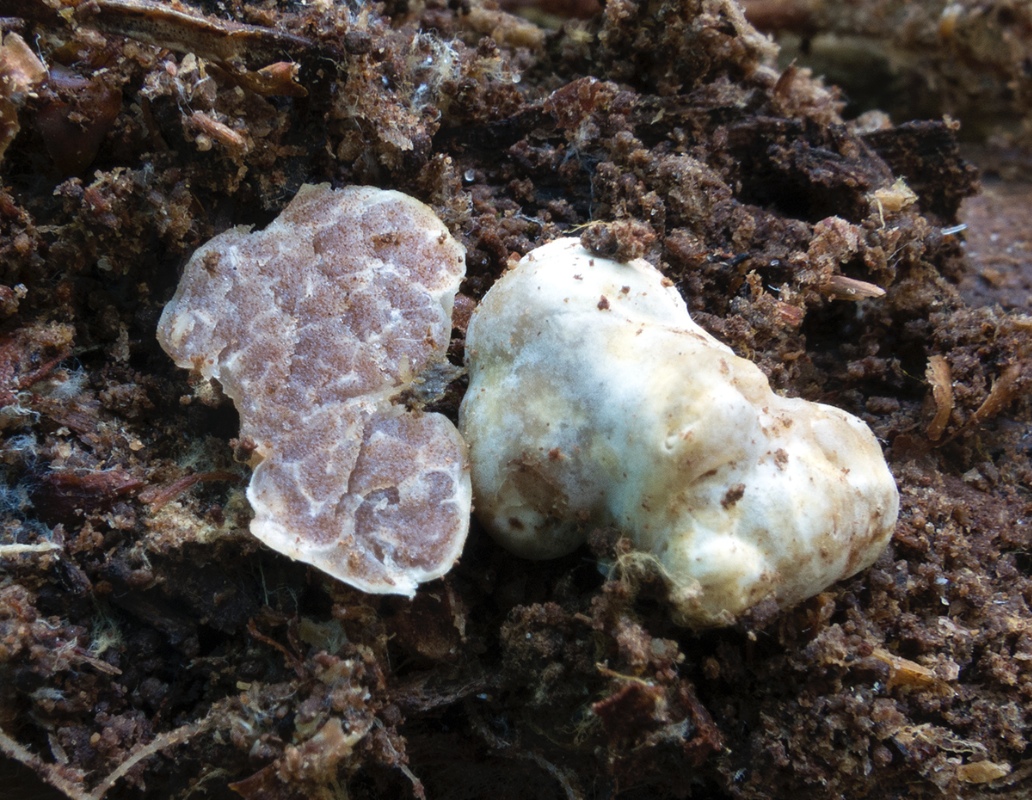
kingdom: Fungi
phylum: Ascomycota
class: Pezizomycetes
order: Pezizales
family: Tuberaceae
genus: Tuber
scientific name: Tuber anniae
